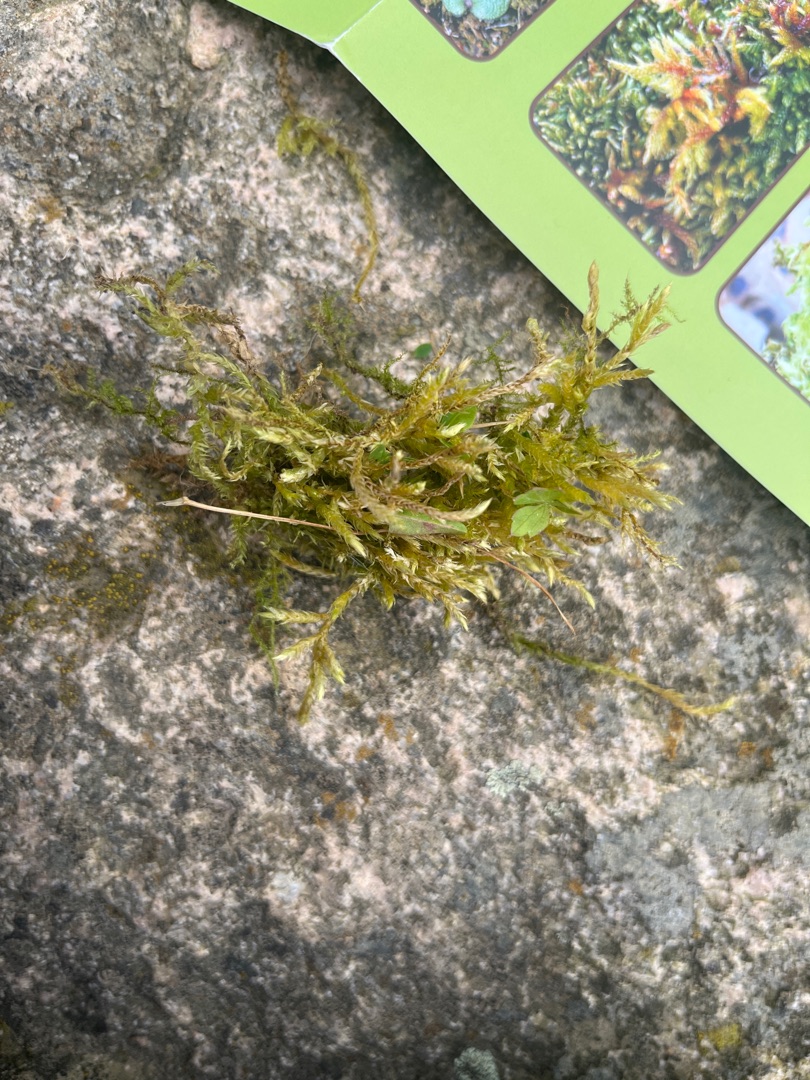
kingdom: Plantae
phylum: Bryophyta
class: Bryopsida
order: Hypnales
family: Brachytheciaceae
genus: Brachythecium
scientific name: Brachythecium
